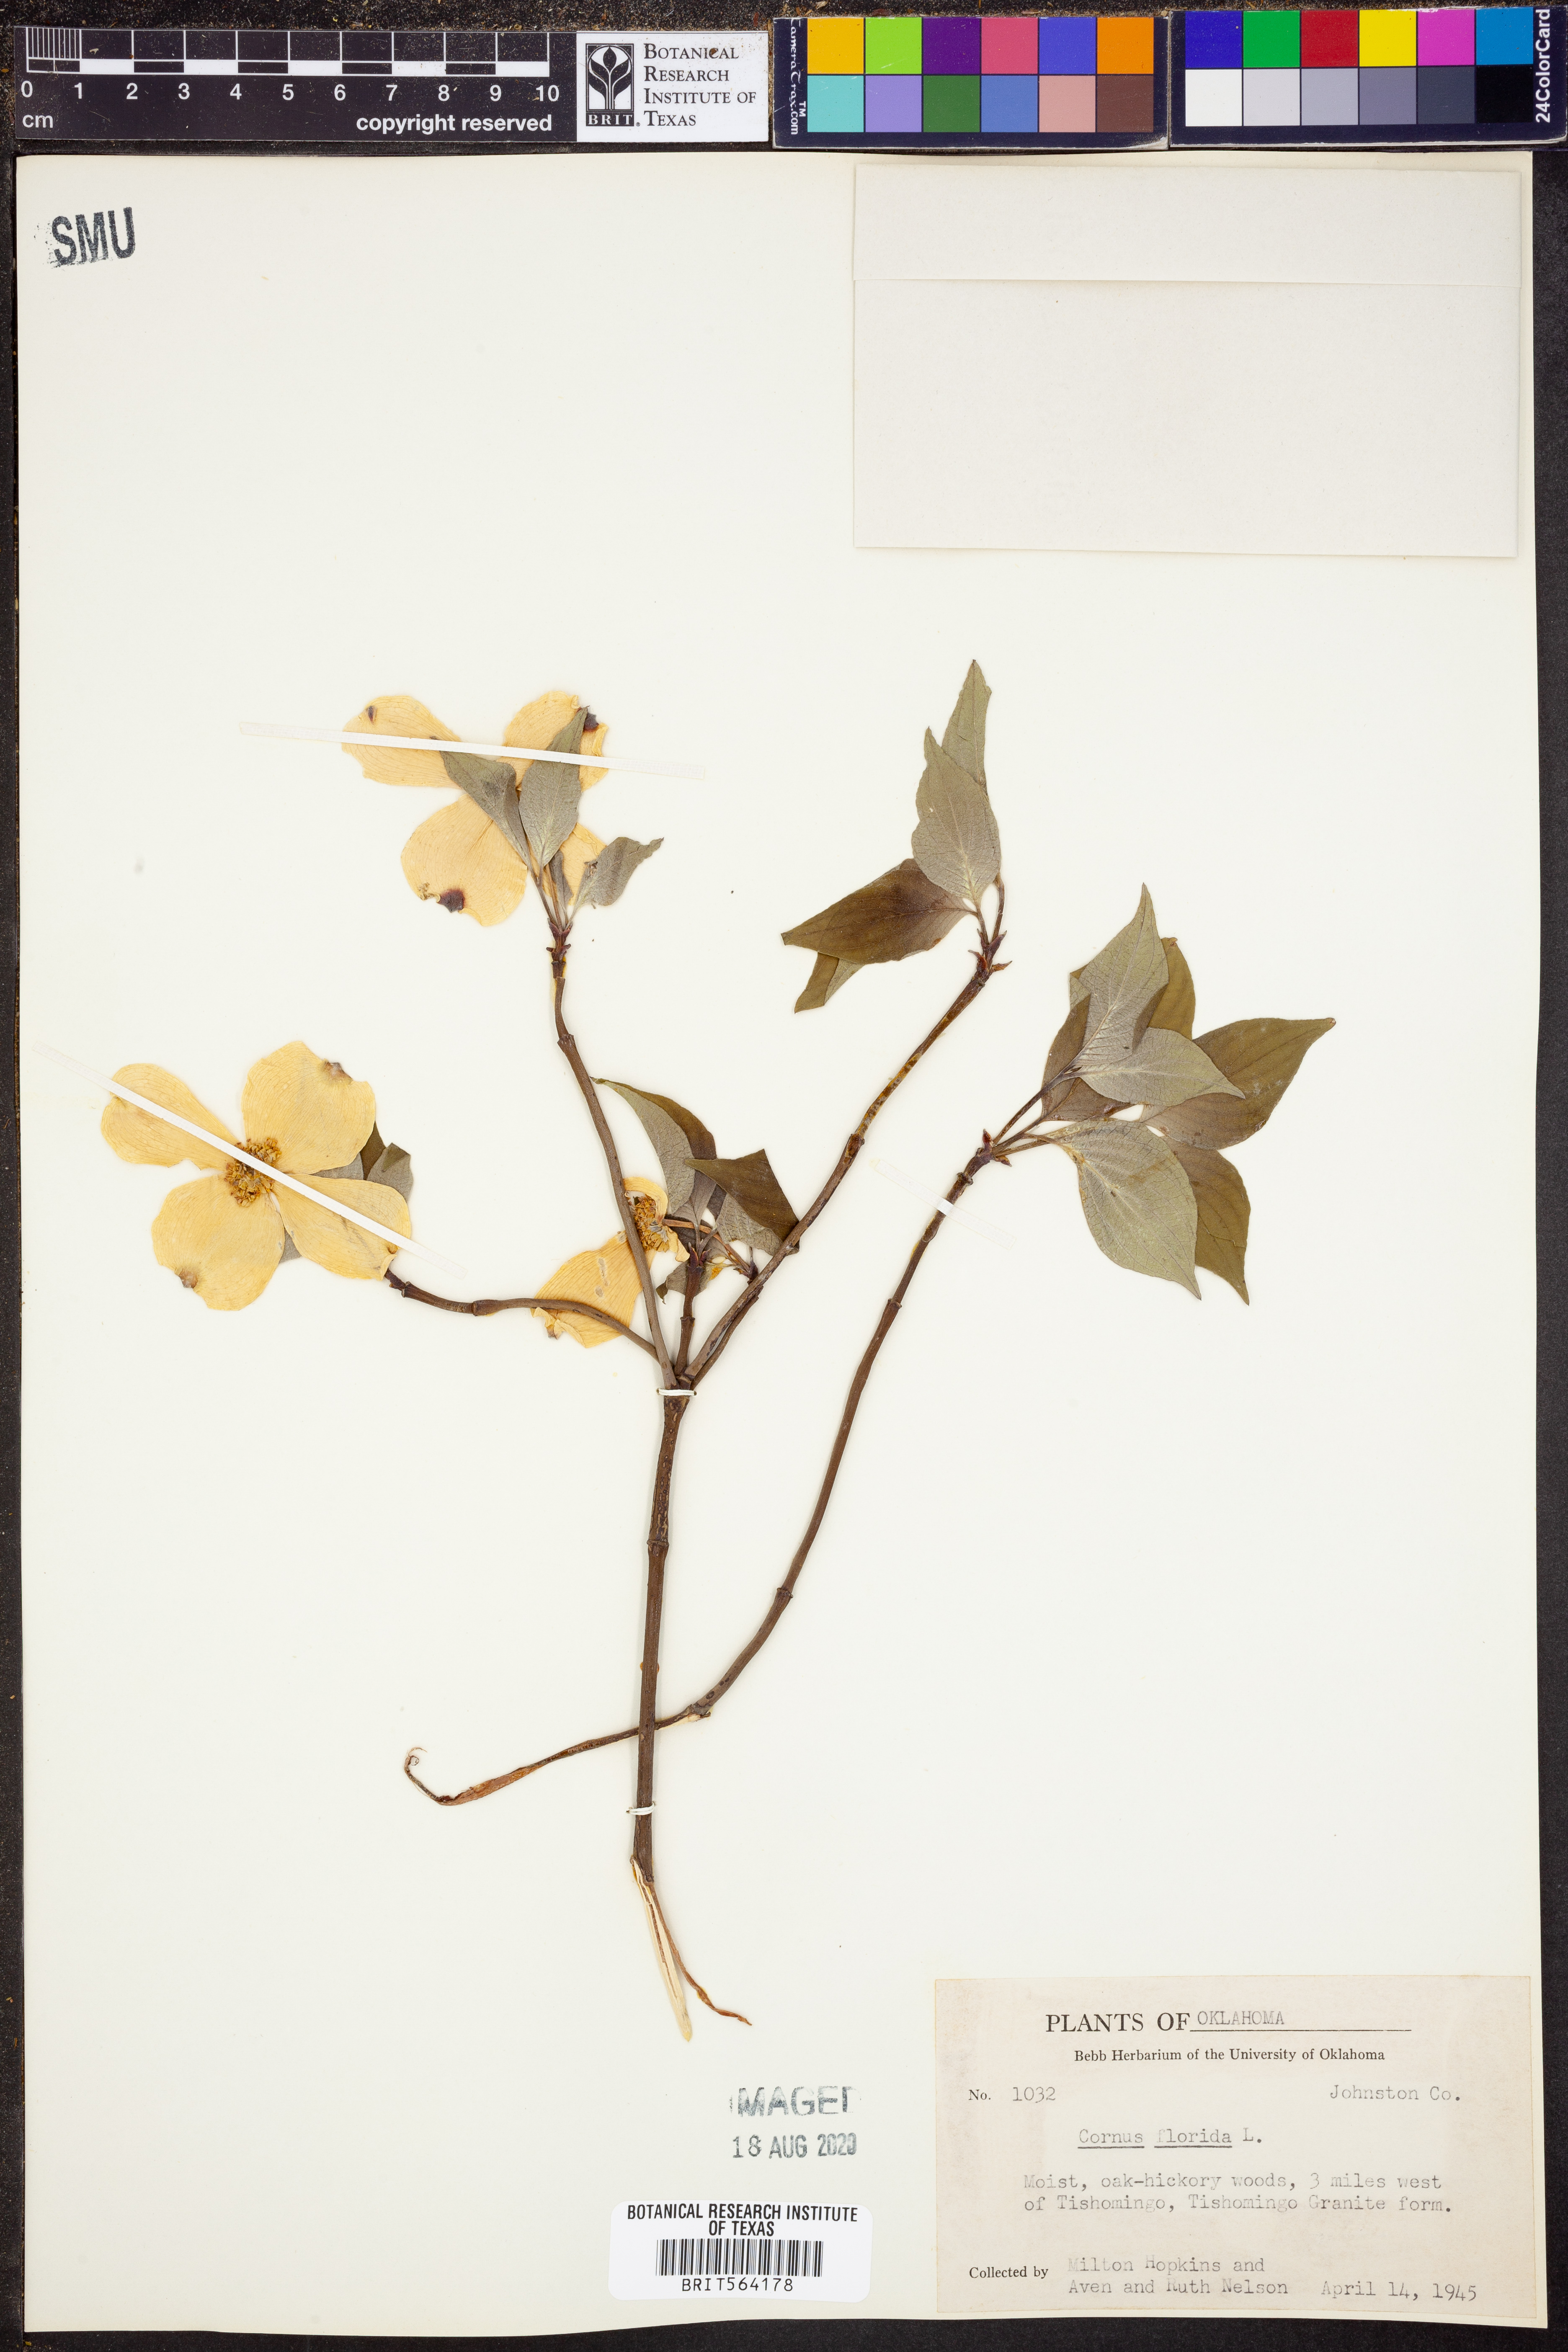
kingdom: Plantae
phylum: Tracheophyta
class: Magnoliopsida
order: Cornales
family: Cornaceae
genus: Cornus
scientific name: Cornus florida
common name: Flowering dogwood
